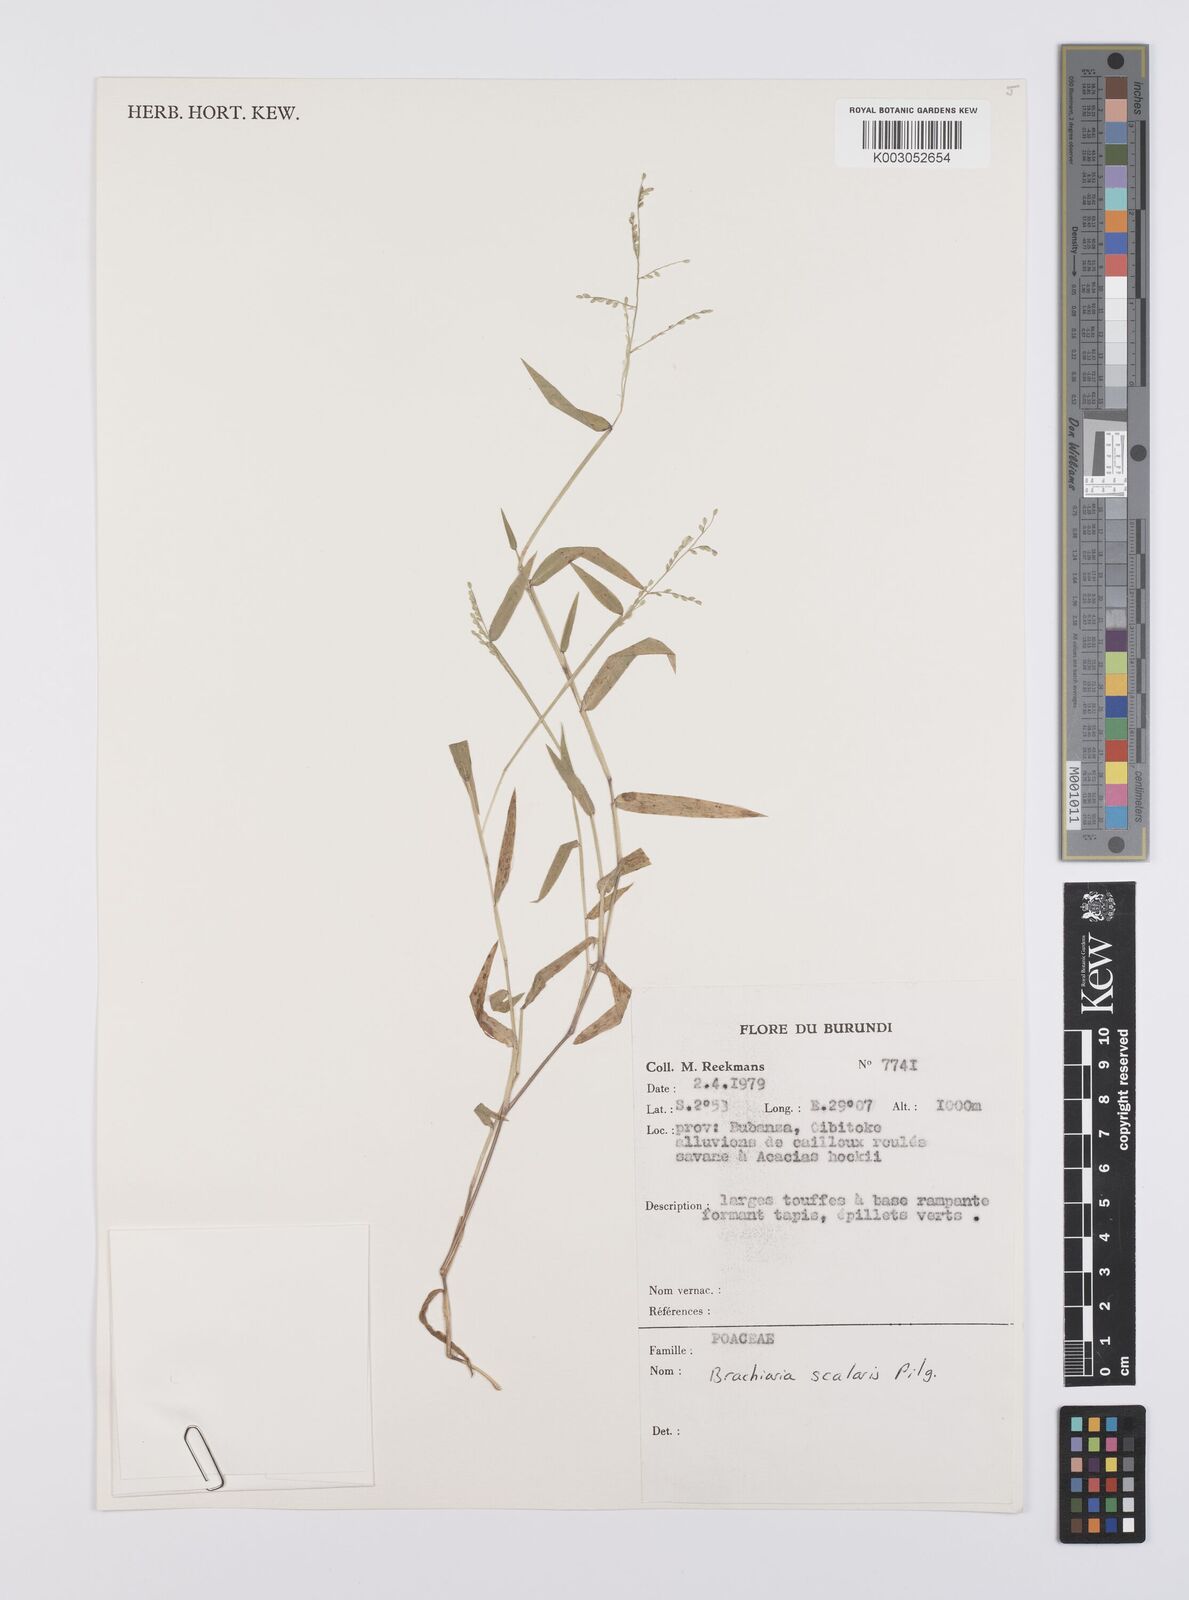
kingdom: Plantae
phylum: Tracheophyta
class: Liliopsida
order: Poales
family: Poaceae
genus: Urochloa
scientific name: Urochloa comata
